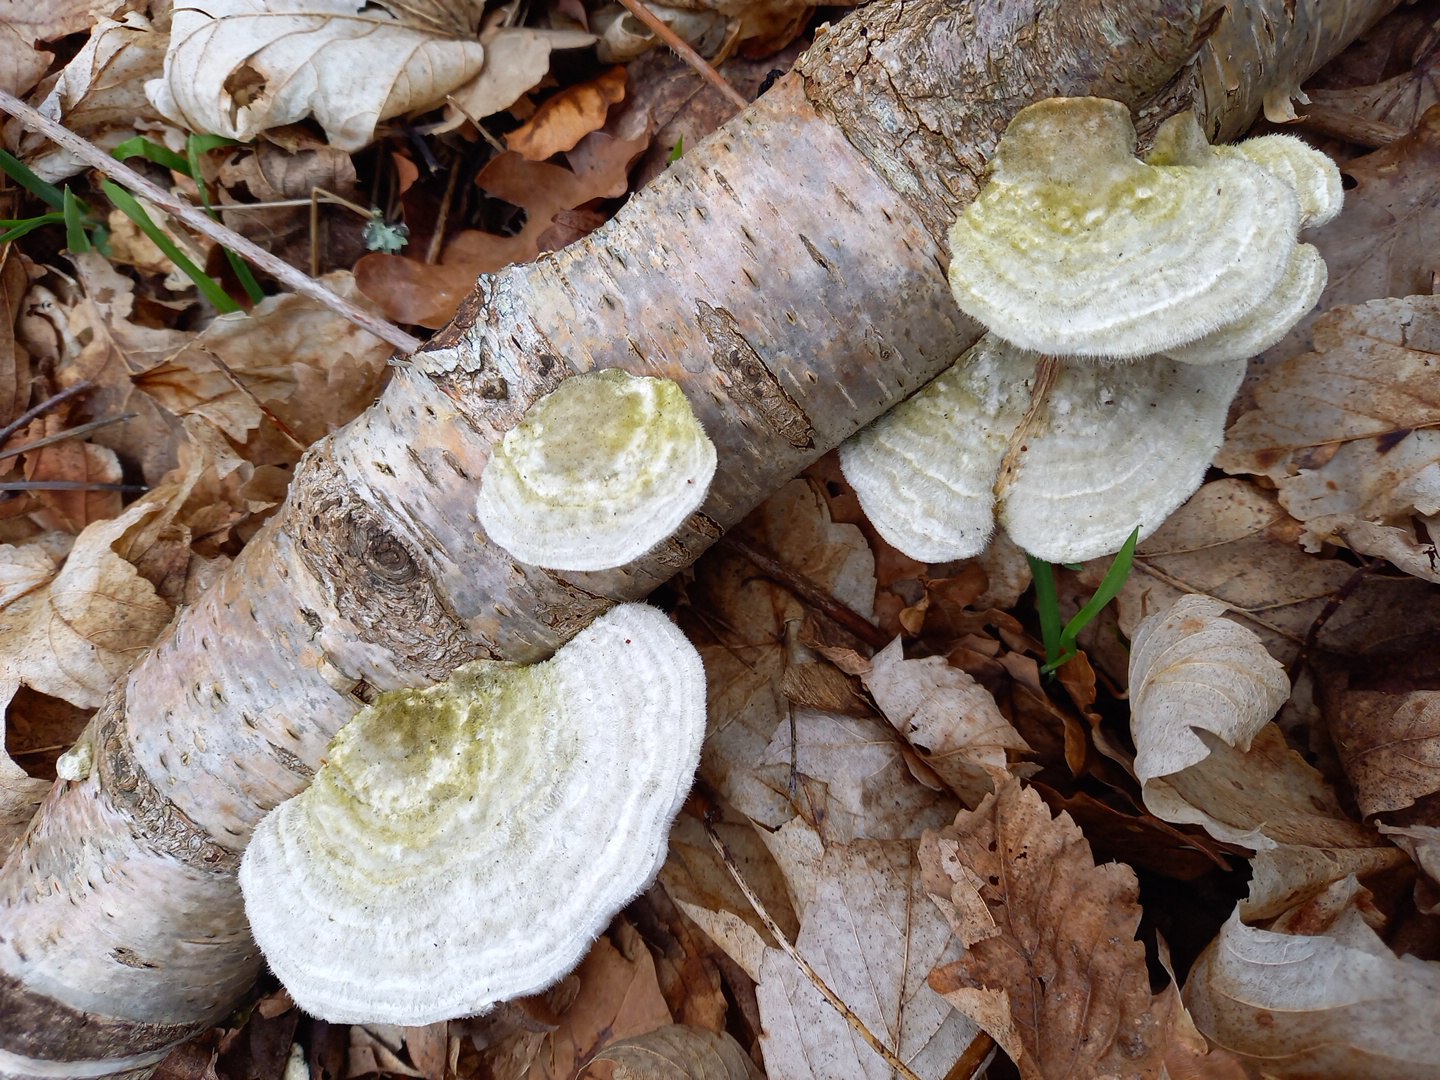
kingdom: Fungi
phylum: Basidiomycota
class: Agaricomycetes
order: Polyporales
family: Polyporaceae
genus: Trametes
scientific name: Trametes hirsuta
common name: håret læderporesvamp
